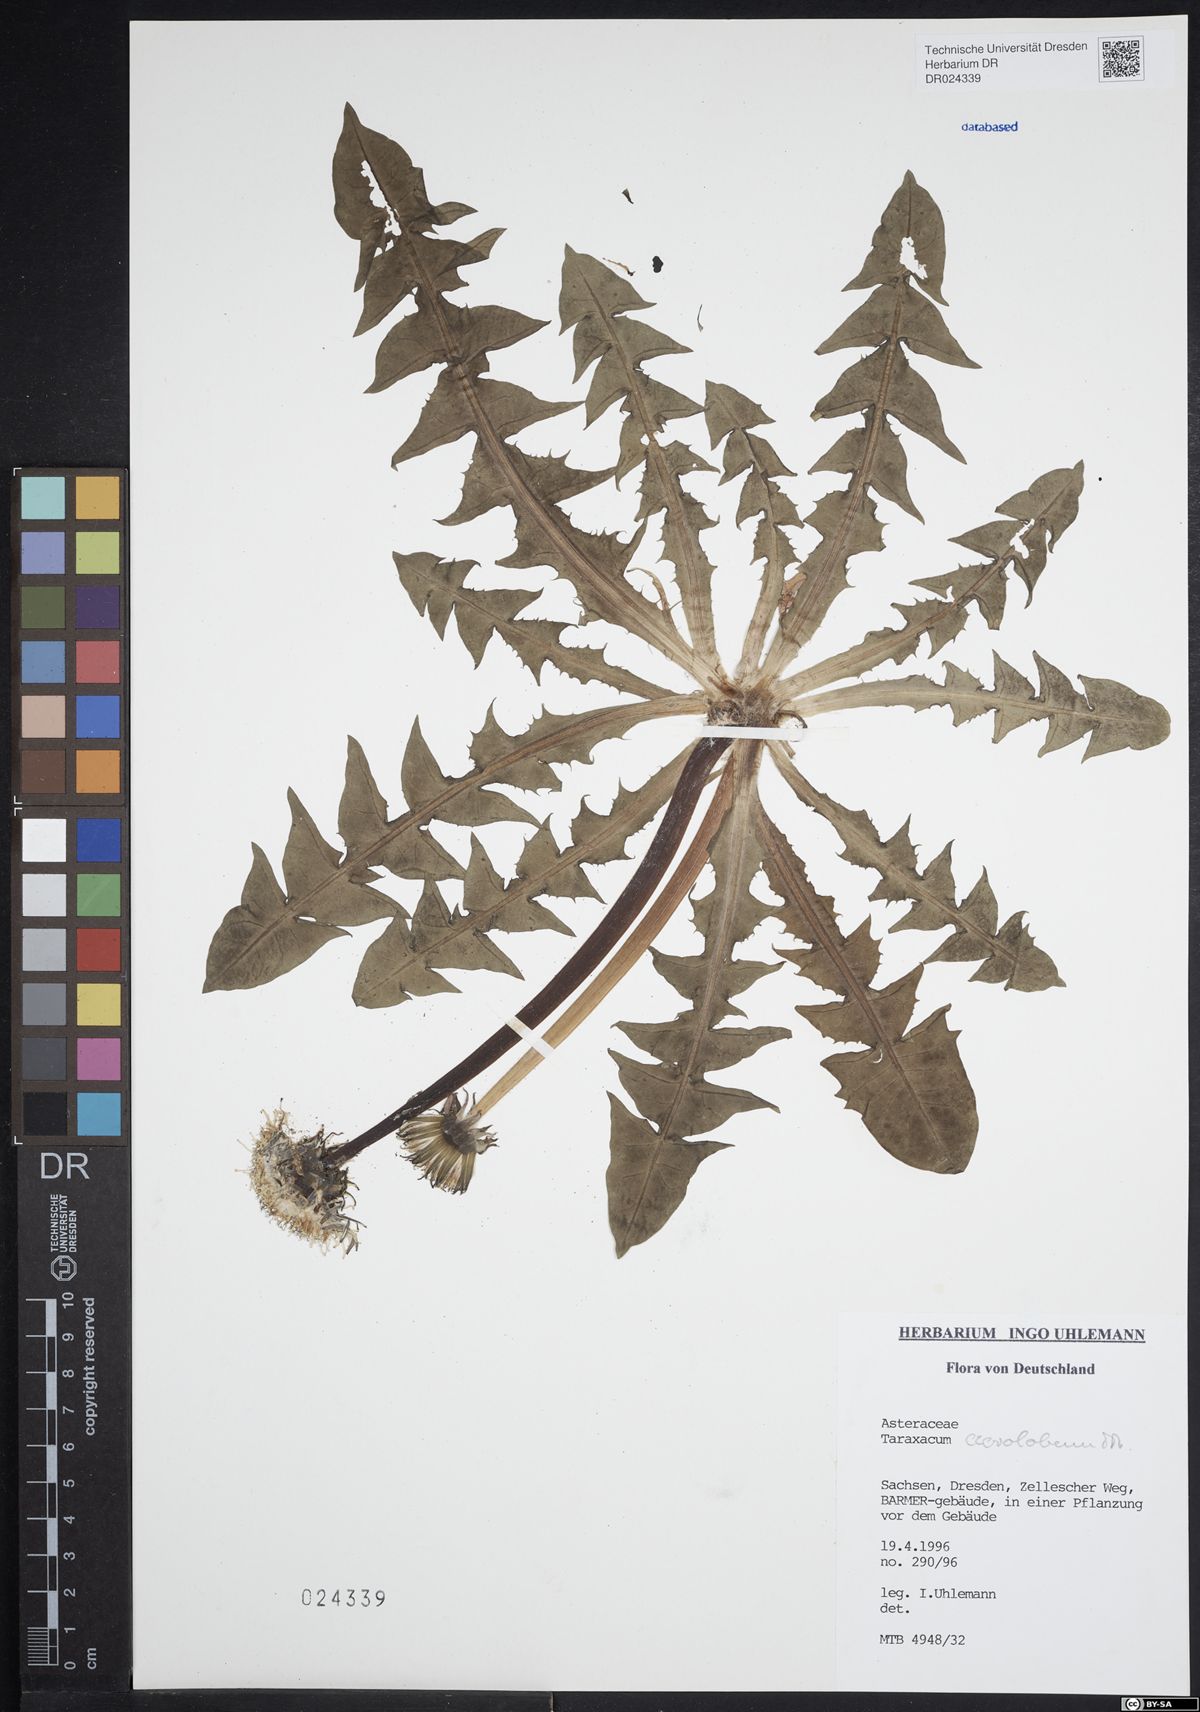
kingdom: Plantae
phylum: Tracheophyta
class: Magnoliopsida
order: Asterales
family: Asteraceae
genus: Taraxacum
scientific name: Taraxacum acrolobum
